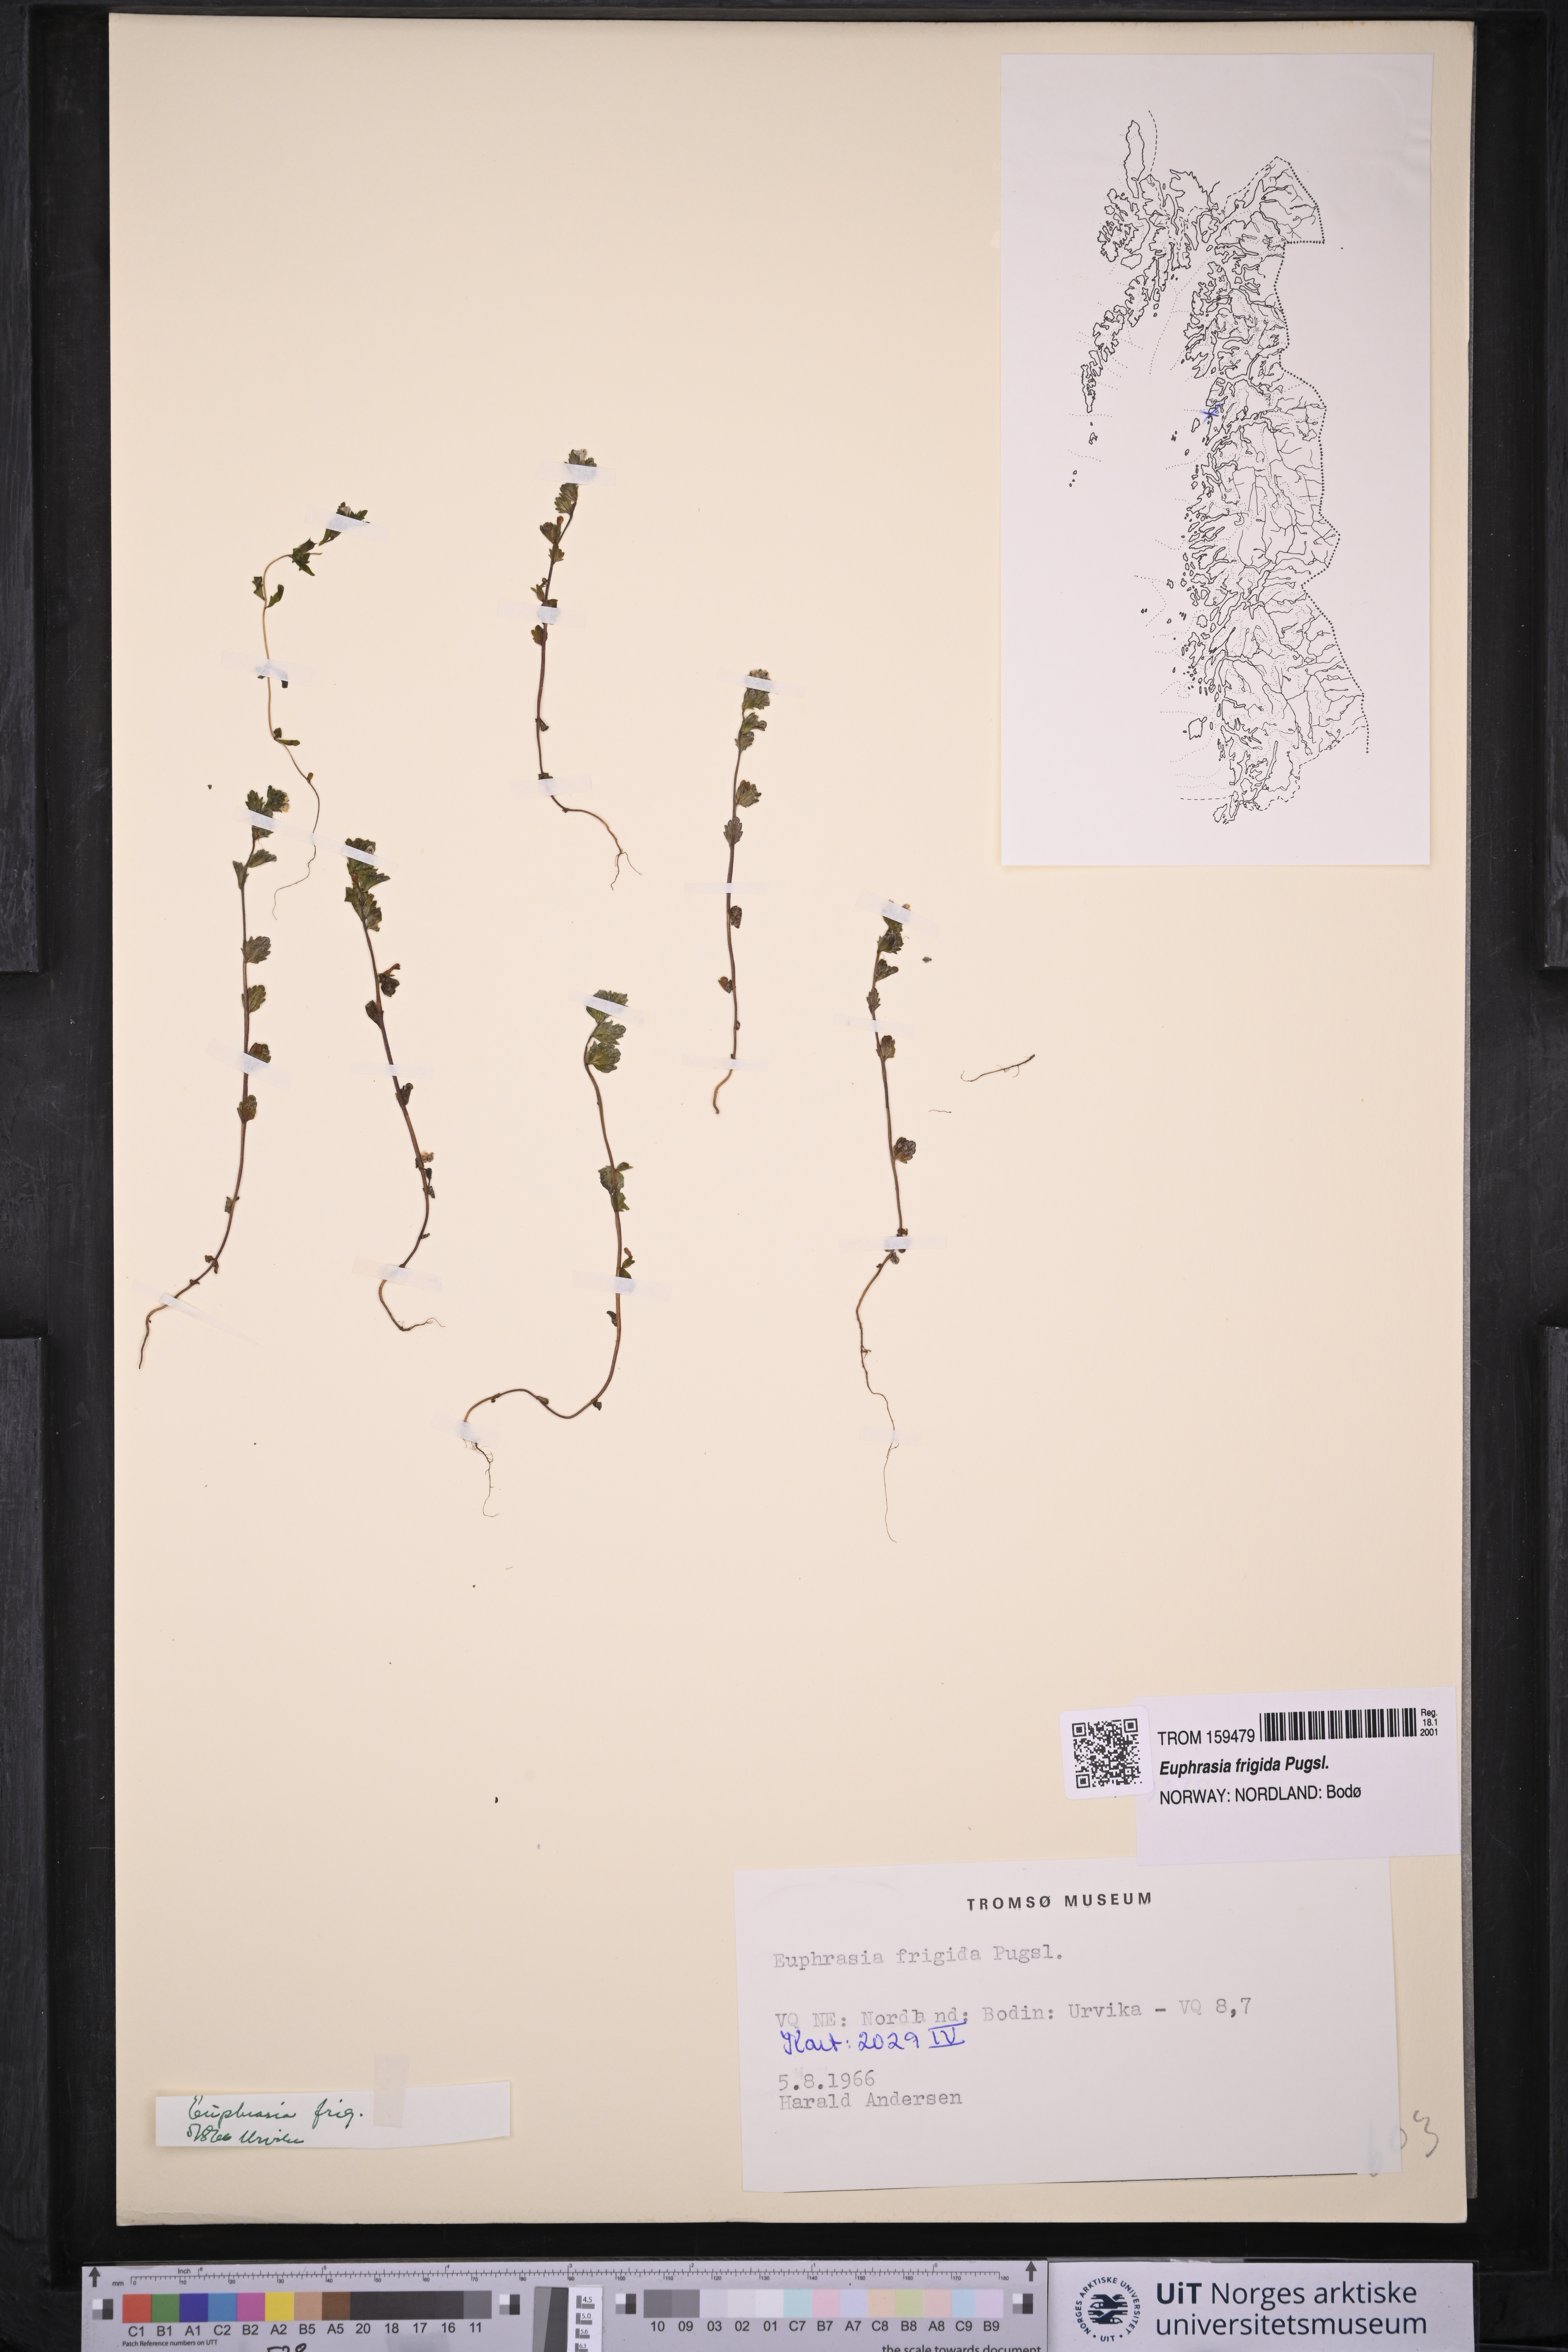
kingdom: Plantae
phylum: Tracheophyta
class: Magnoliopsida
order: Lamiales
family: Orobanchaceae
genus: Euphrasia
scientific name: Euphrasia frigida
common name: An eyebright
